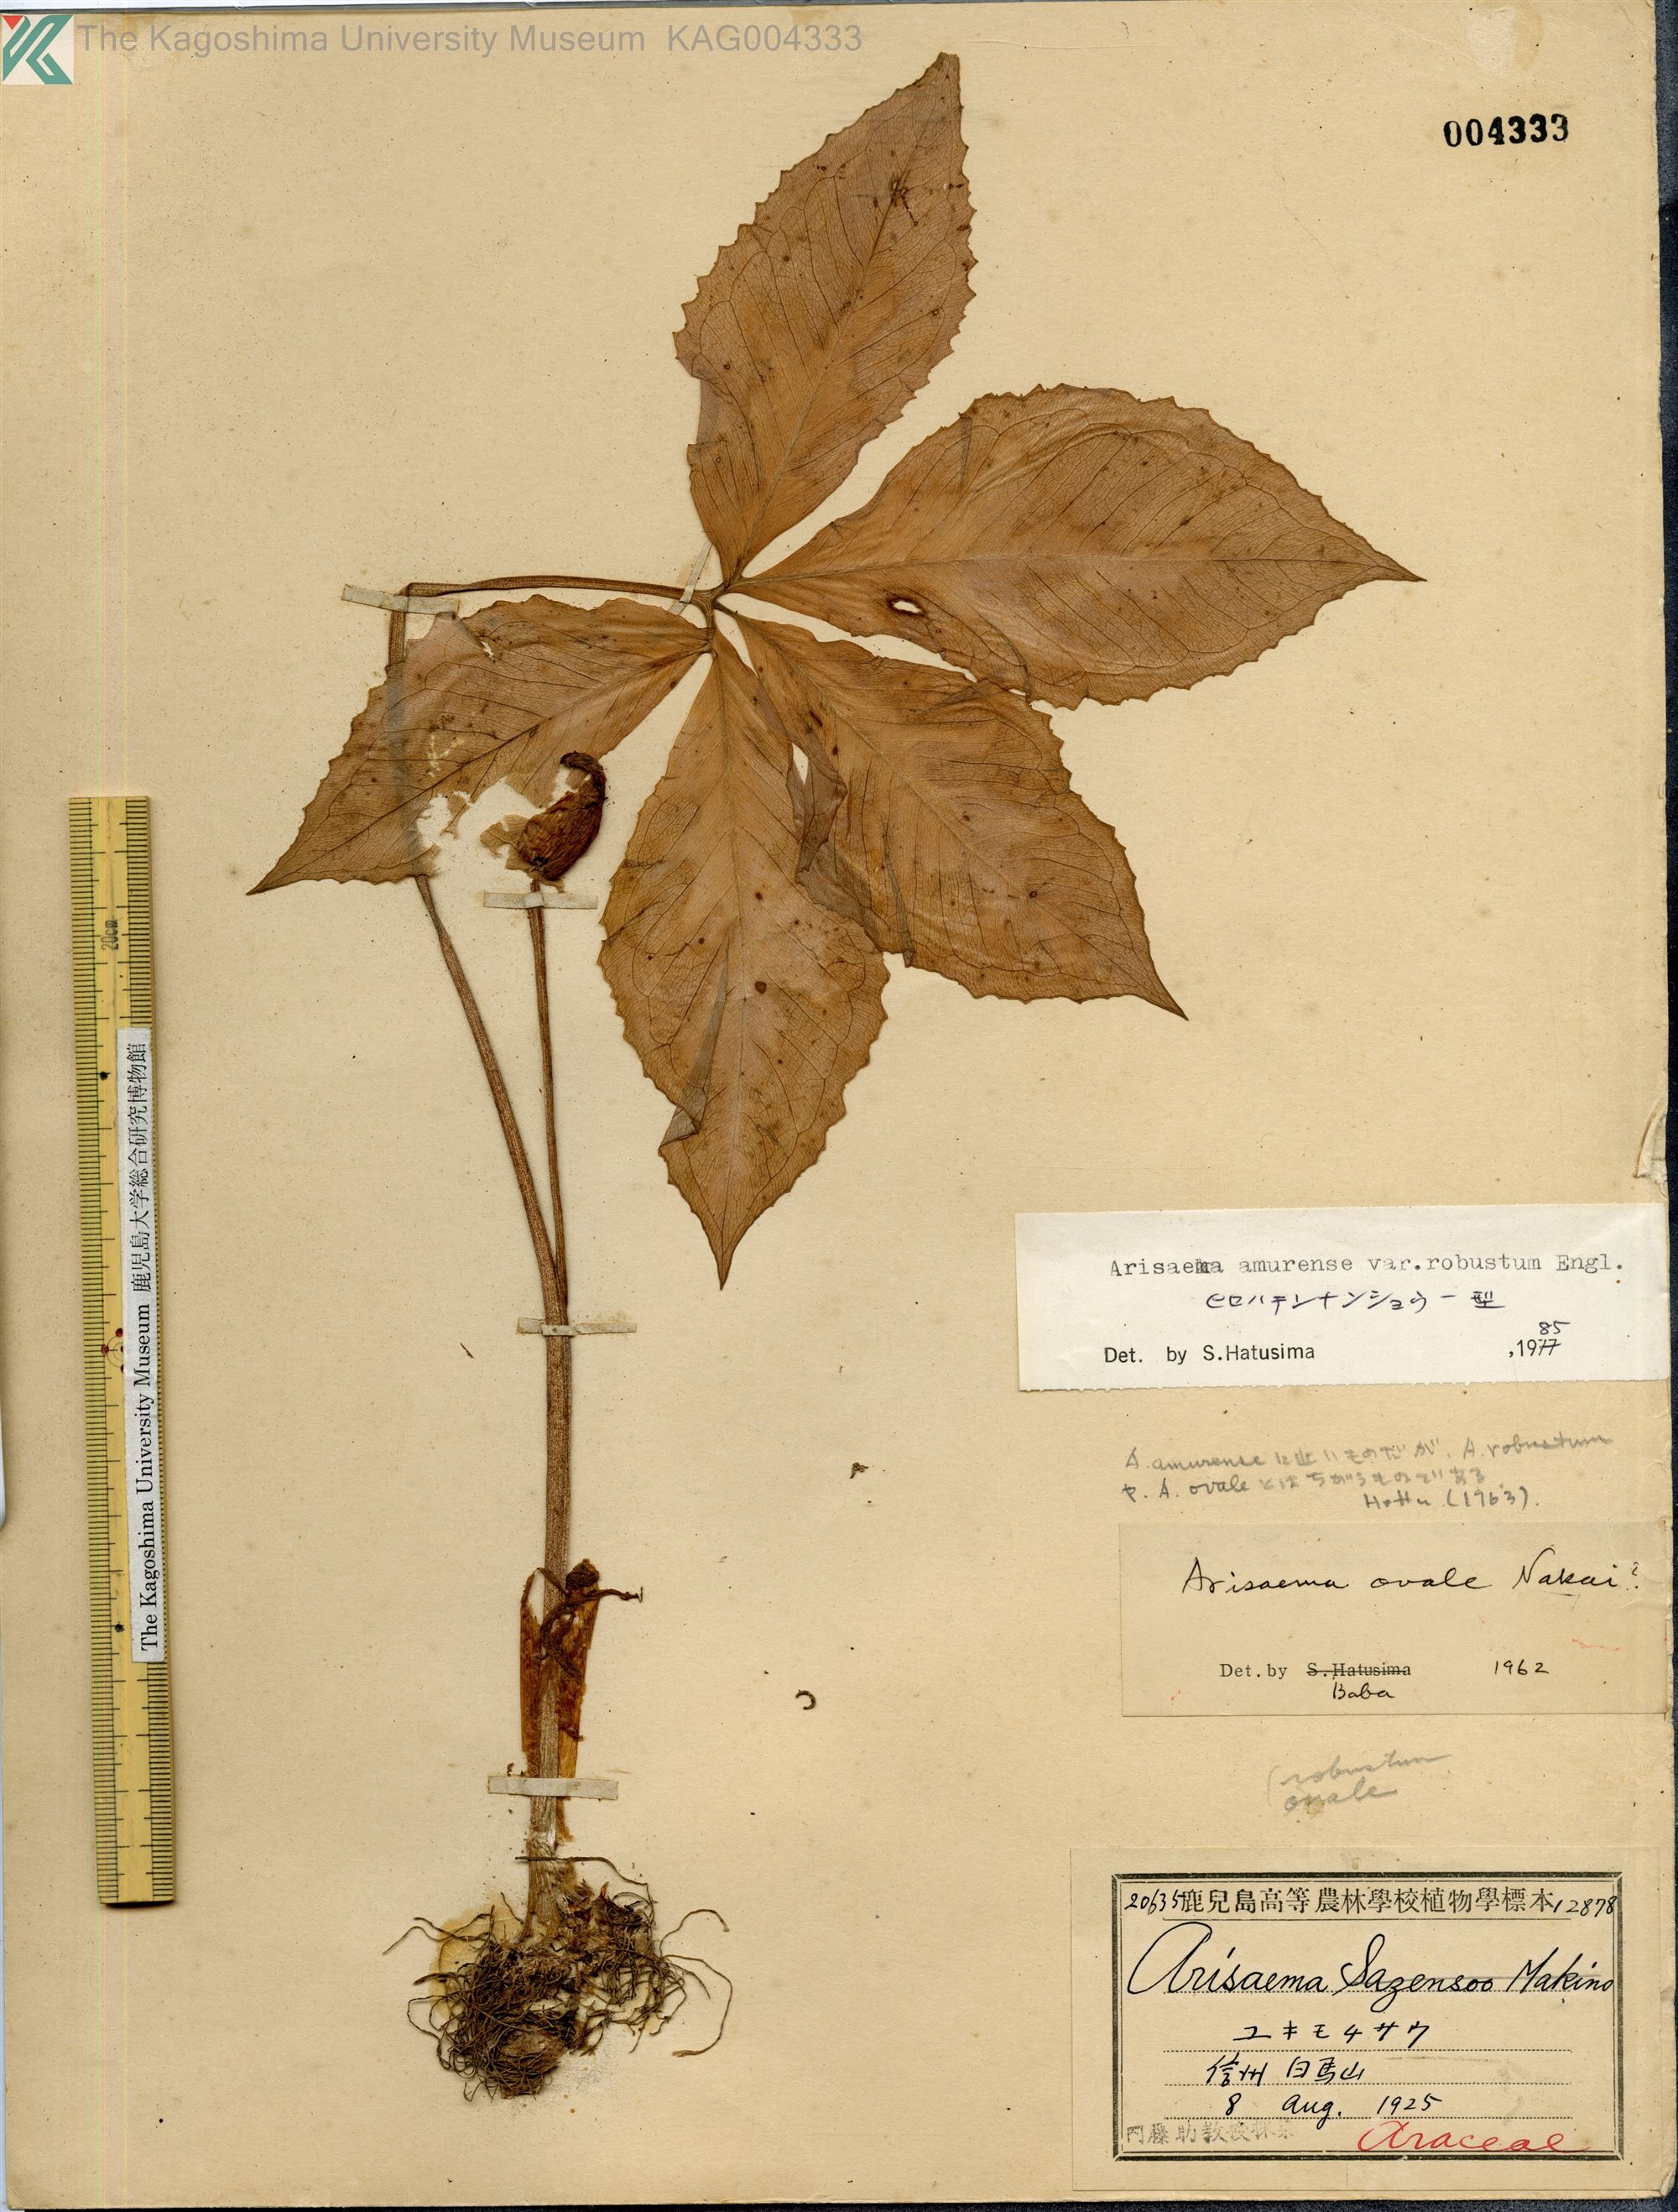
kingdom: Plantae
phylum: Tracheophyta
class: Liliopsida
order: Alismatales
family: Araceae
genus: Arisaema
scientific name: Arisaema amurense
